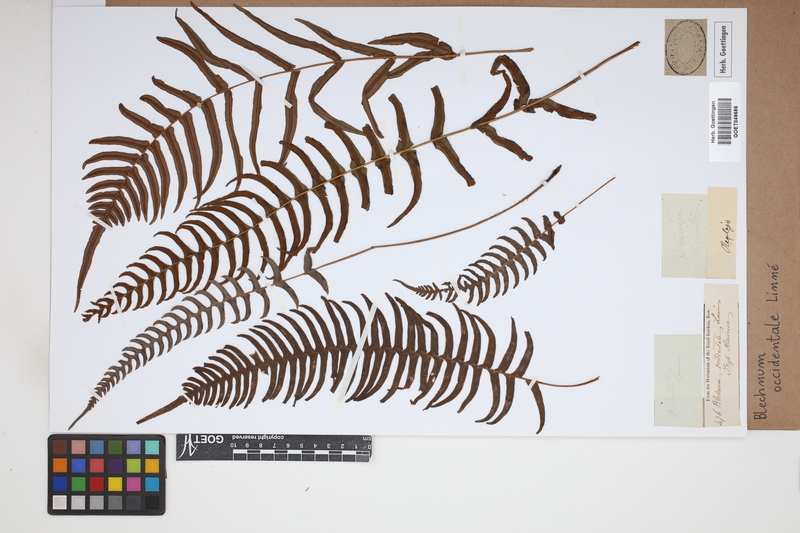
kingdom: Plantae
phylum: Tracheophyta
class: Polypodiopsida
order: Polypodiales
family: Blechnaceae
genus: Blechnum
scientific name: Blechnum occidentale
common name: Hammock fern
